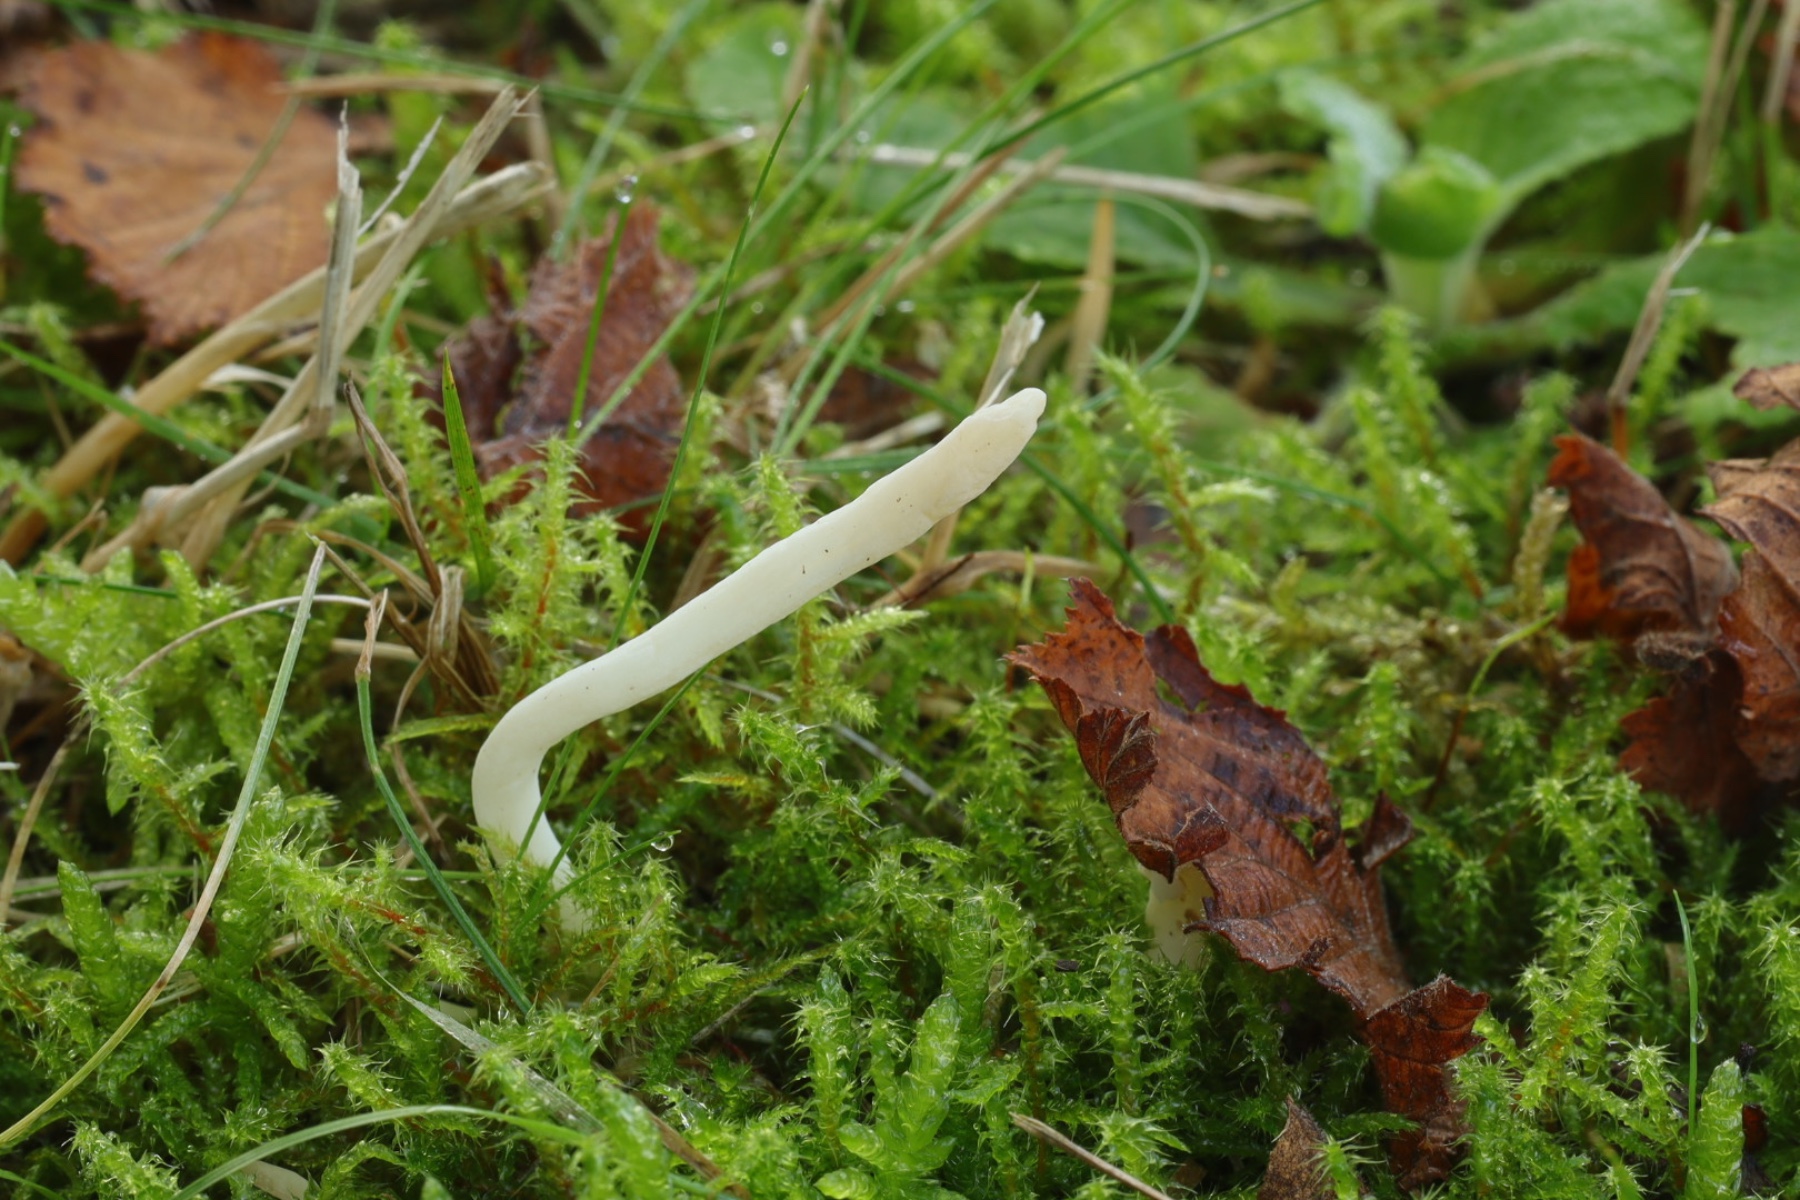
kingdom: Fungi
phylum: Basidiomycota
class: Agaricomycetes
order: Agaricales
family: Clavariaceae
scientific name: Clavariaceae
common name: køllesvampfamilien
